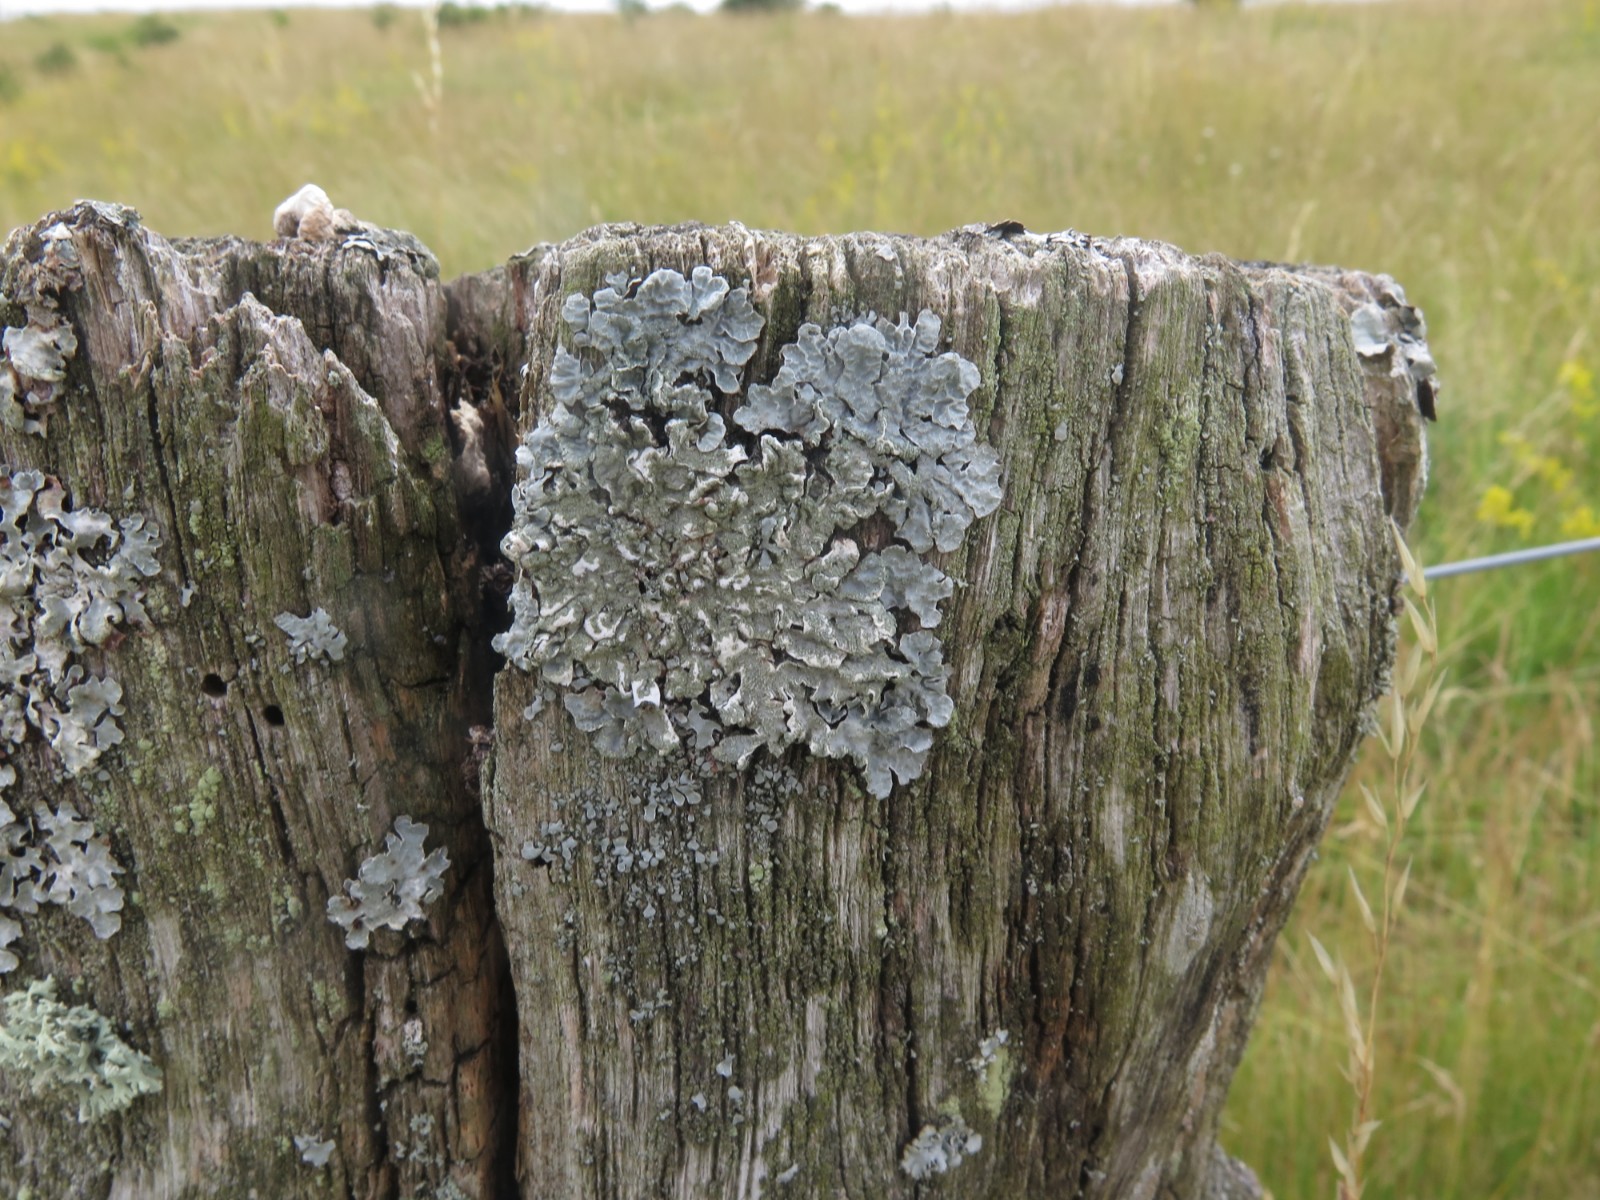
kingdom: Fungi
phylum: Ascomycota
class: Lecanoromycetes
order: Lecanorales
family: Parmeliaceae
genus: Parmelia
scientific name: Parmelia sulcata
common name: rynket skållav
